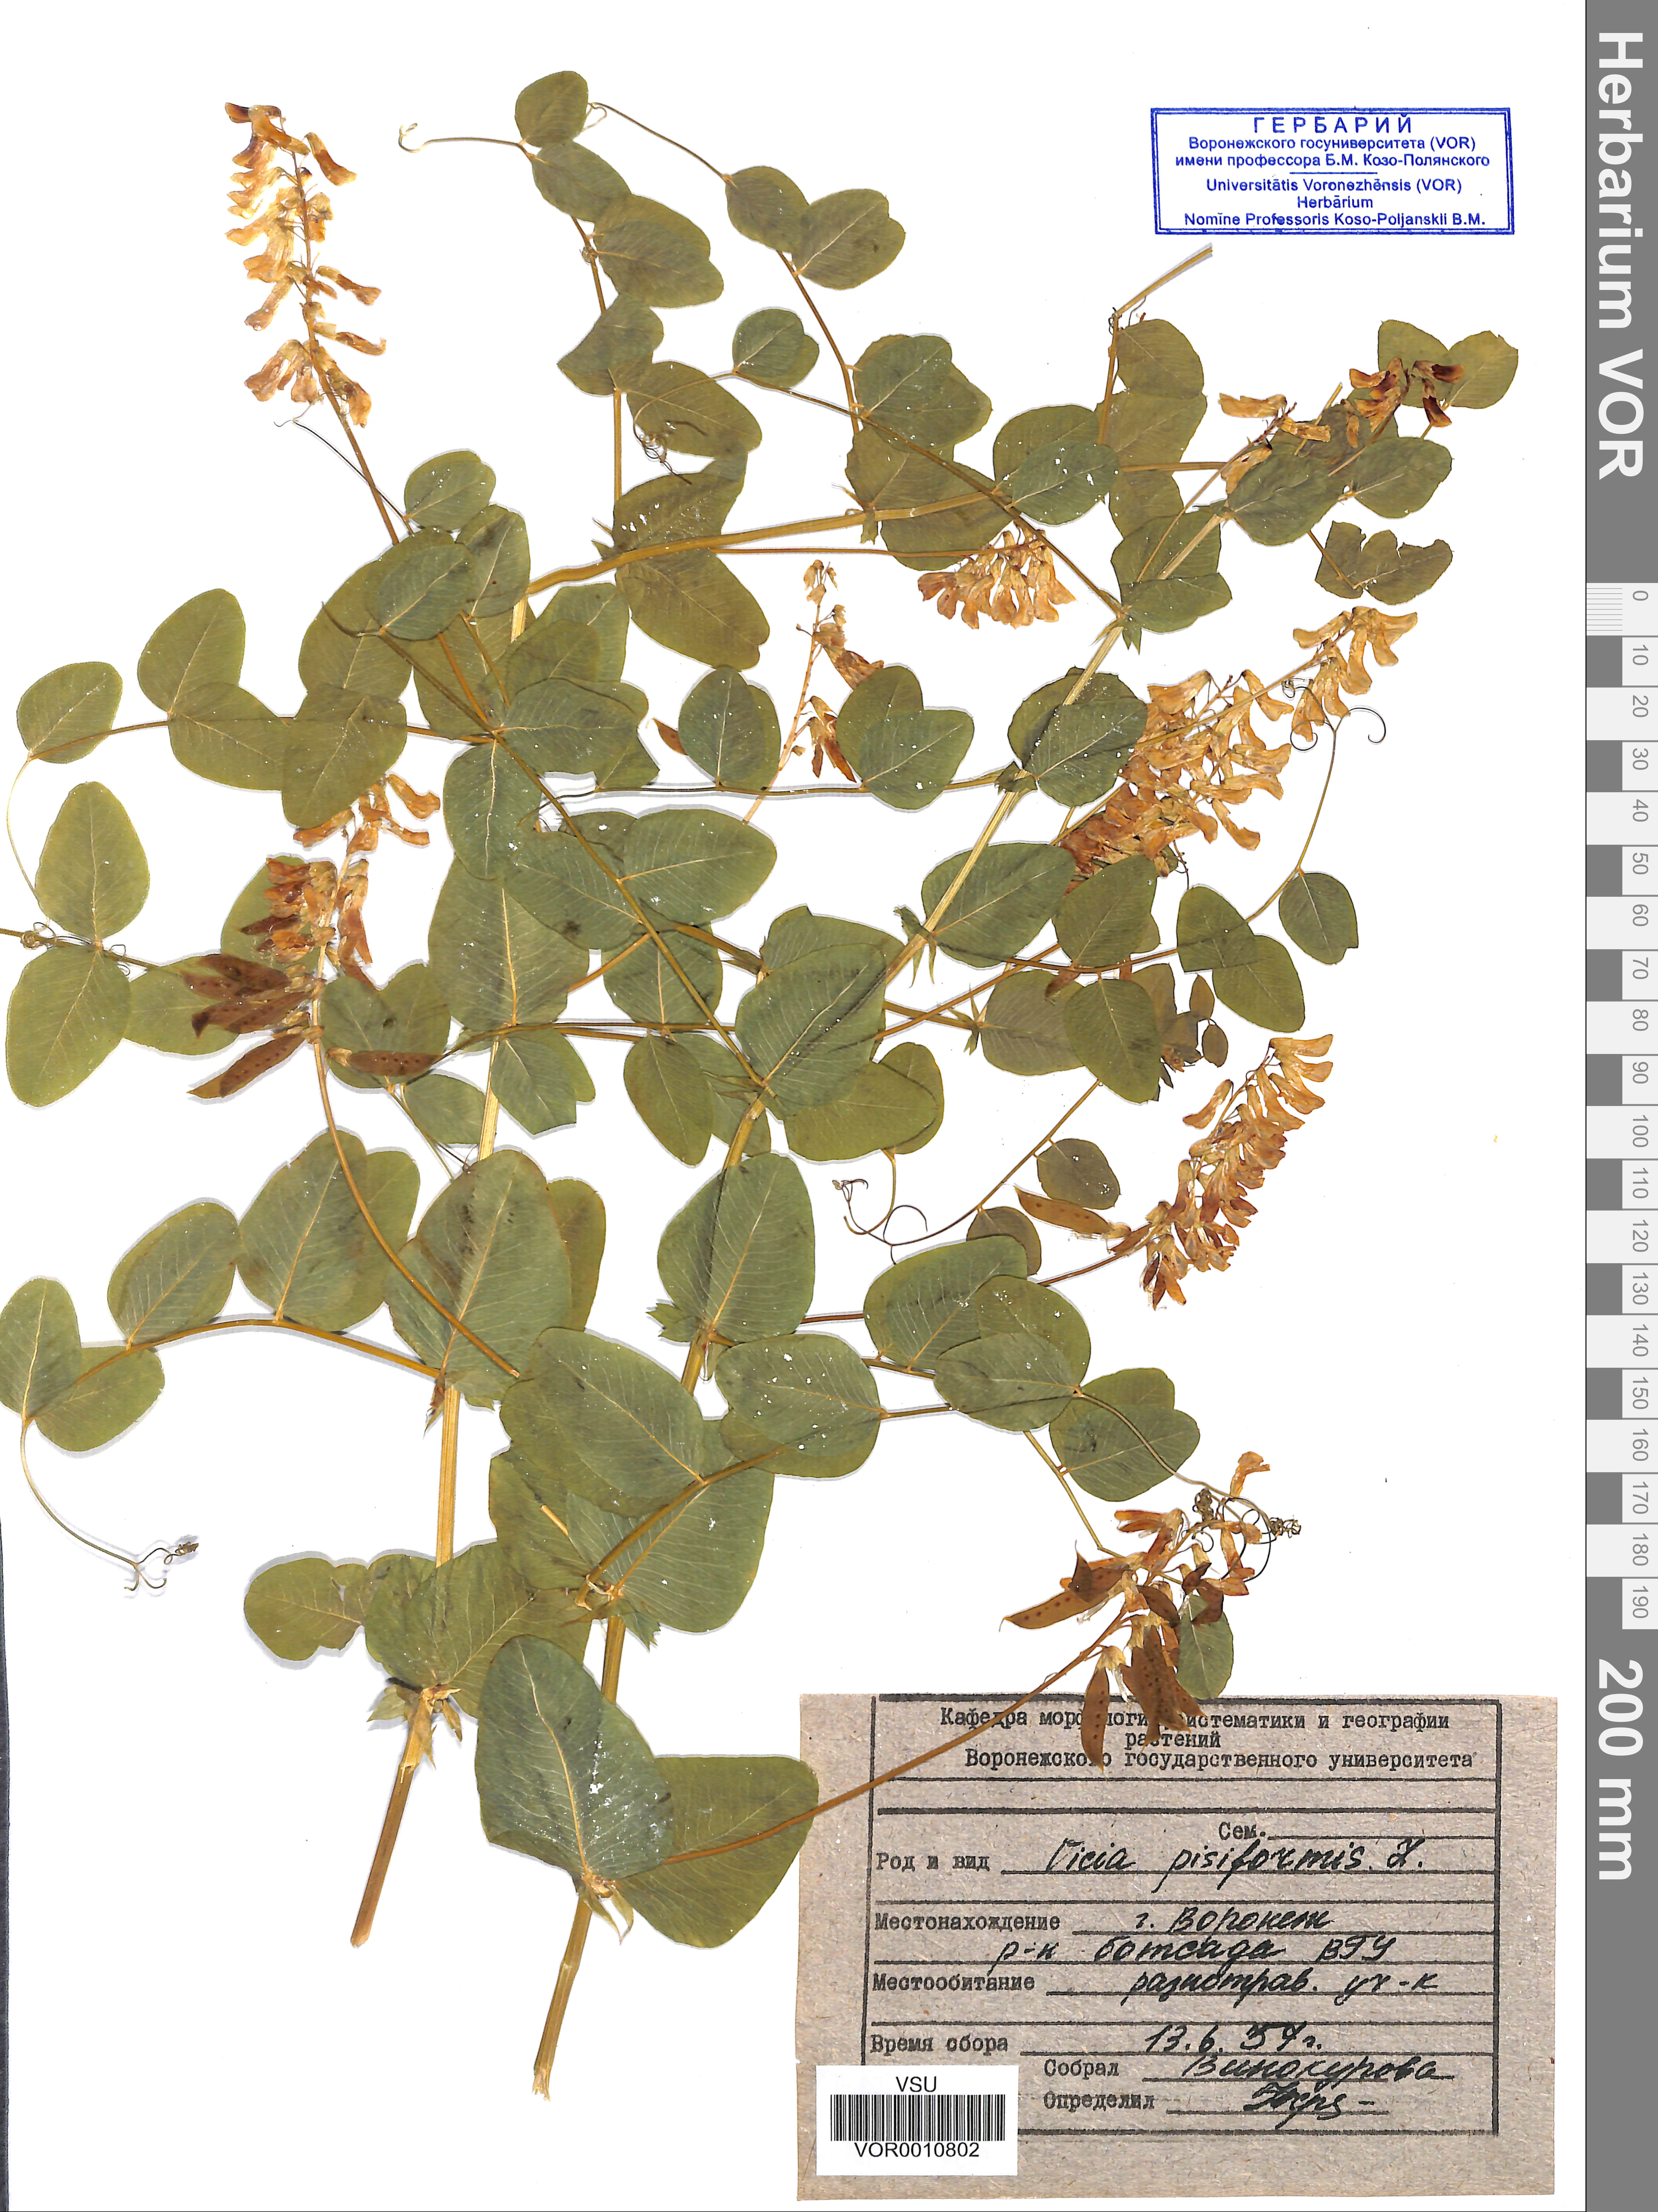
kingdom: Plantae
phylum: Tracheophyta
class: Magnoliopsida
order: Fabales
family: Fabaceae
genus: Vicia
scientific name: Vicia pisiformis
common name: Pale-flower vetch
